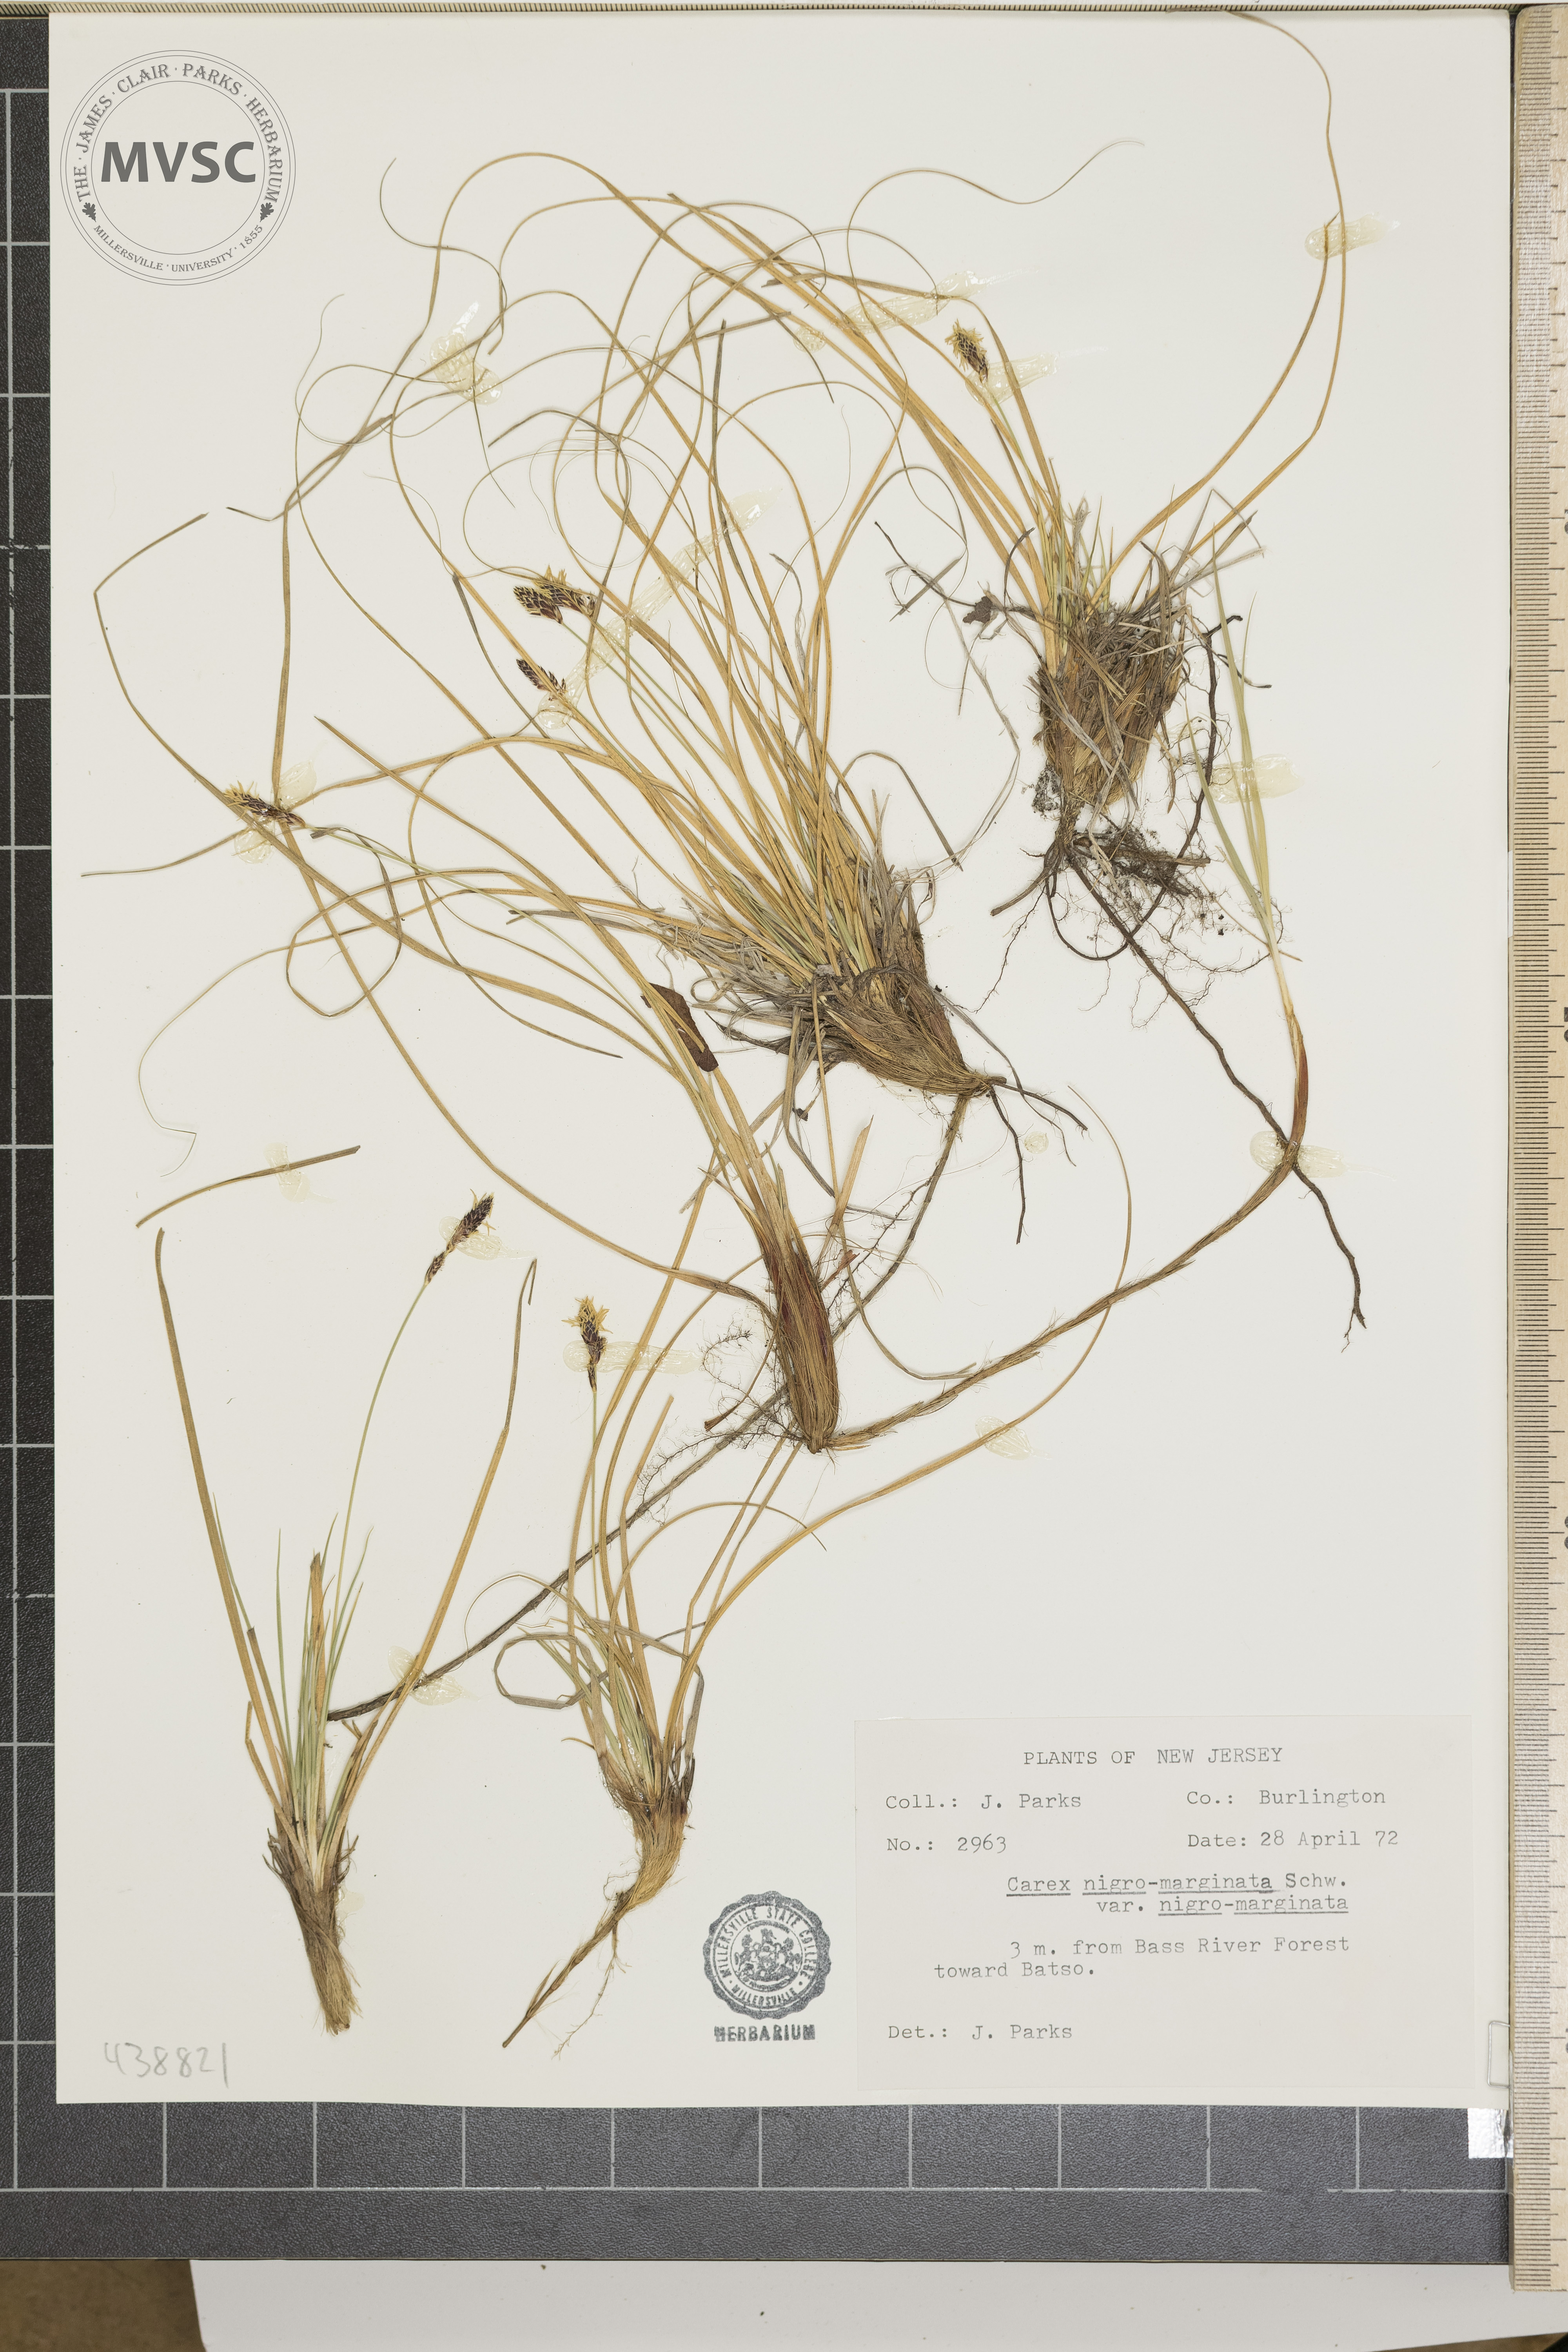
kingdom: Plantae
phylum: Tracheophyta
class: Liliopsida
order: Poales
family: Cyperaceae
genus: Carex
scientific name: Carex nigromarginata
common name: Black-edged sedge
